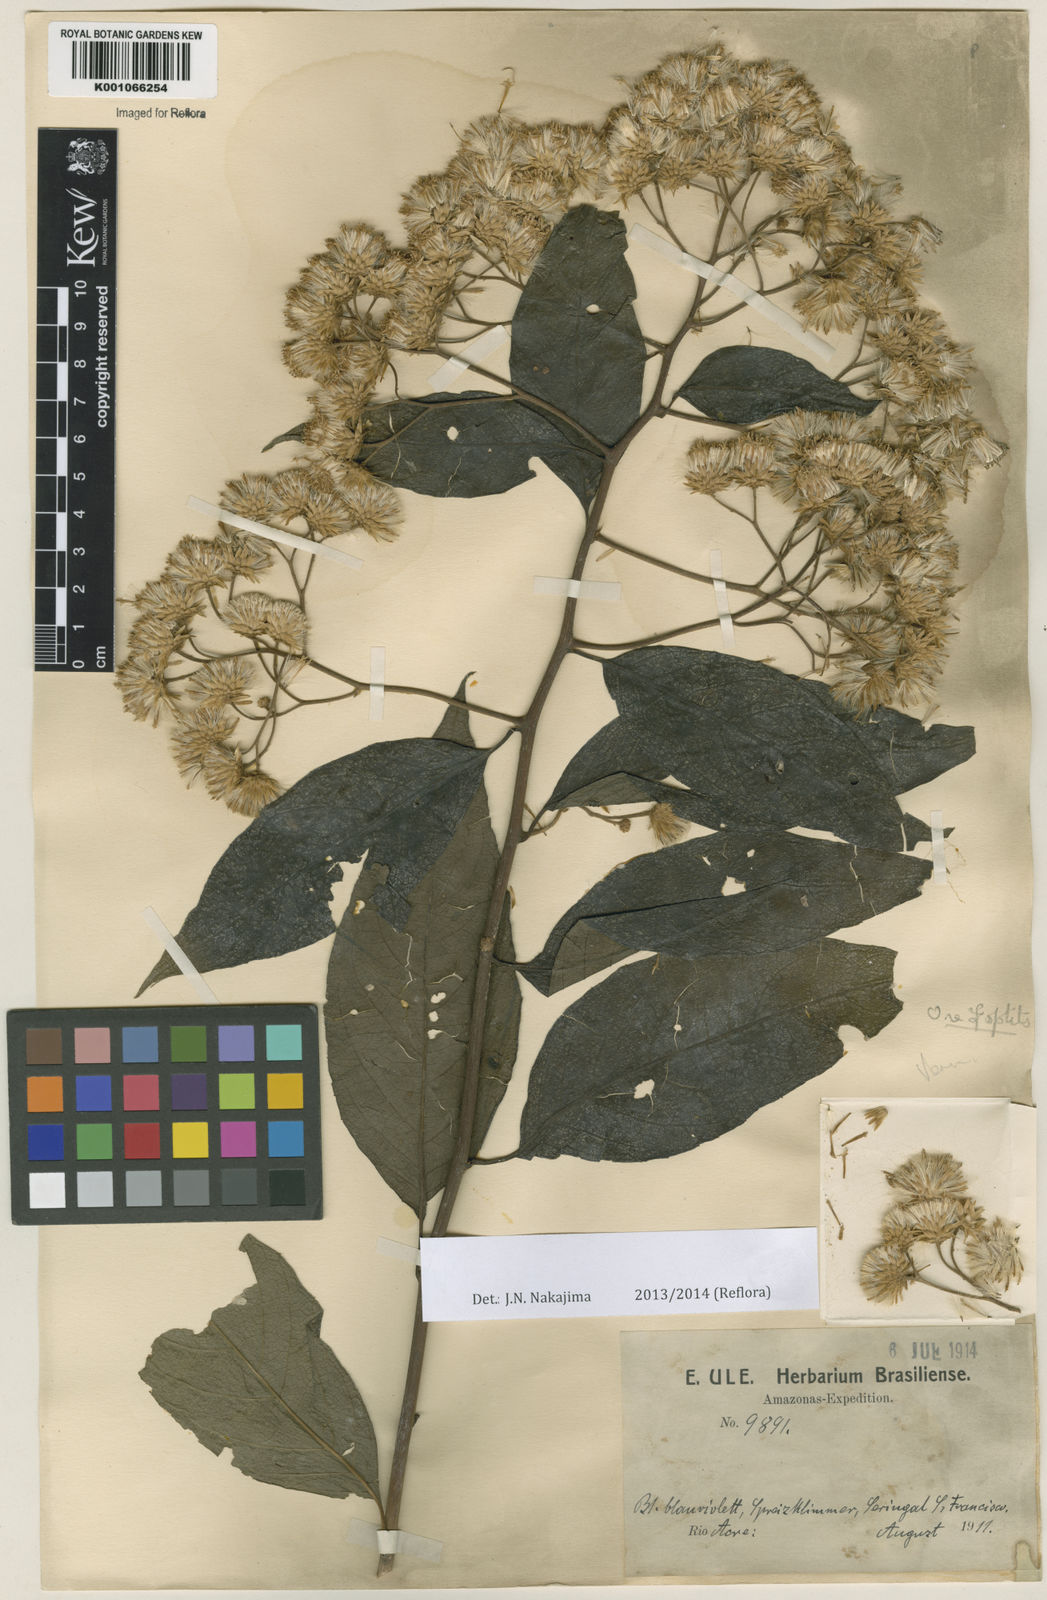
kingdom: Plantae
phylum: Tracheophyta
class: Magnoliopsida
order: Asterales
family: Asteraceae
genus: Vernonanthura
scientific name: Vernonanthura patens
